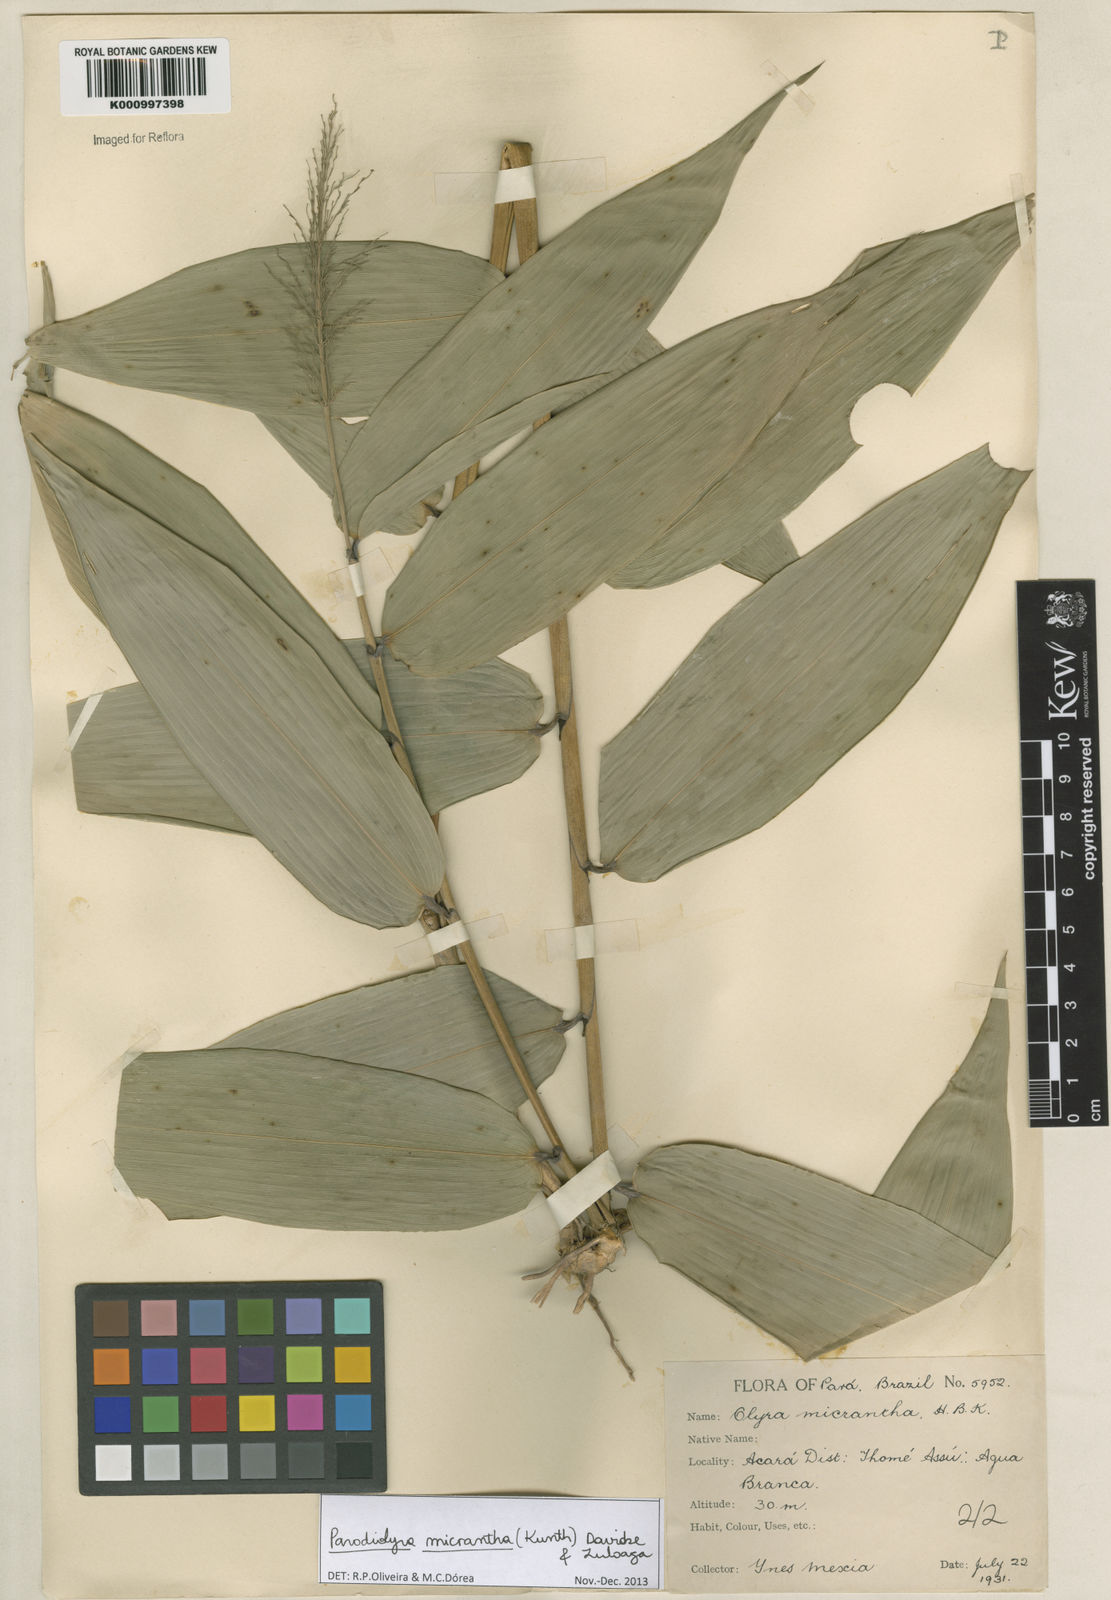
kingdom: Plantae
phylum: Tracheophyta
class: Liliopsida
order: Poales
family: Poaceae
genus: Taquara
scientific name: Taquara micrantha
